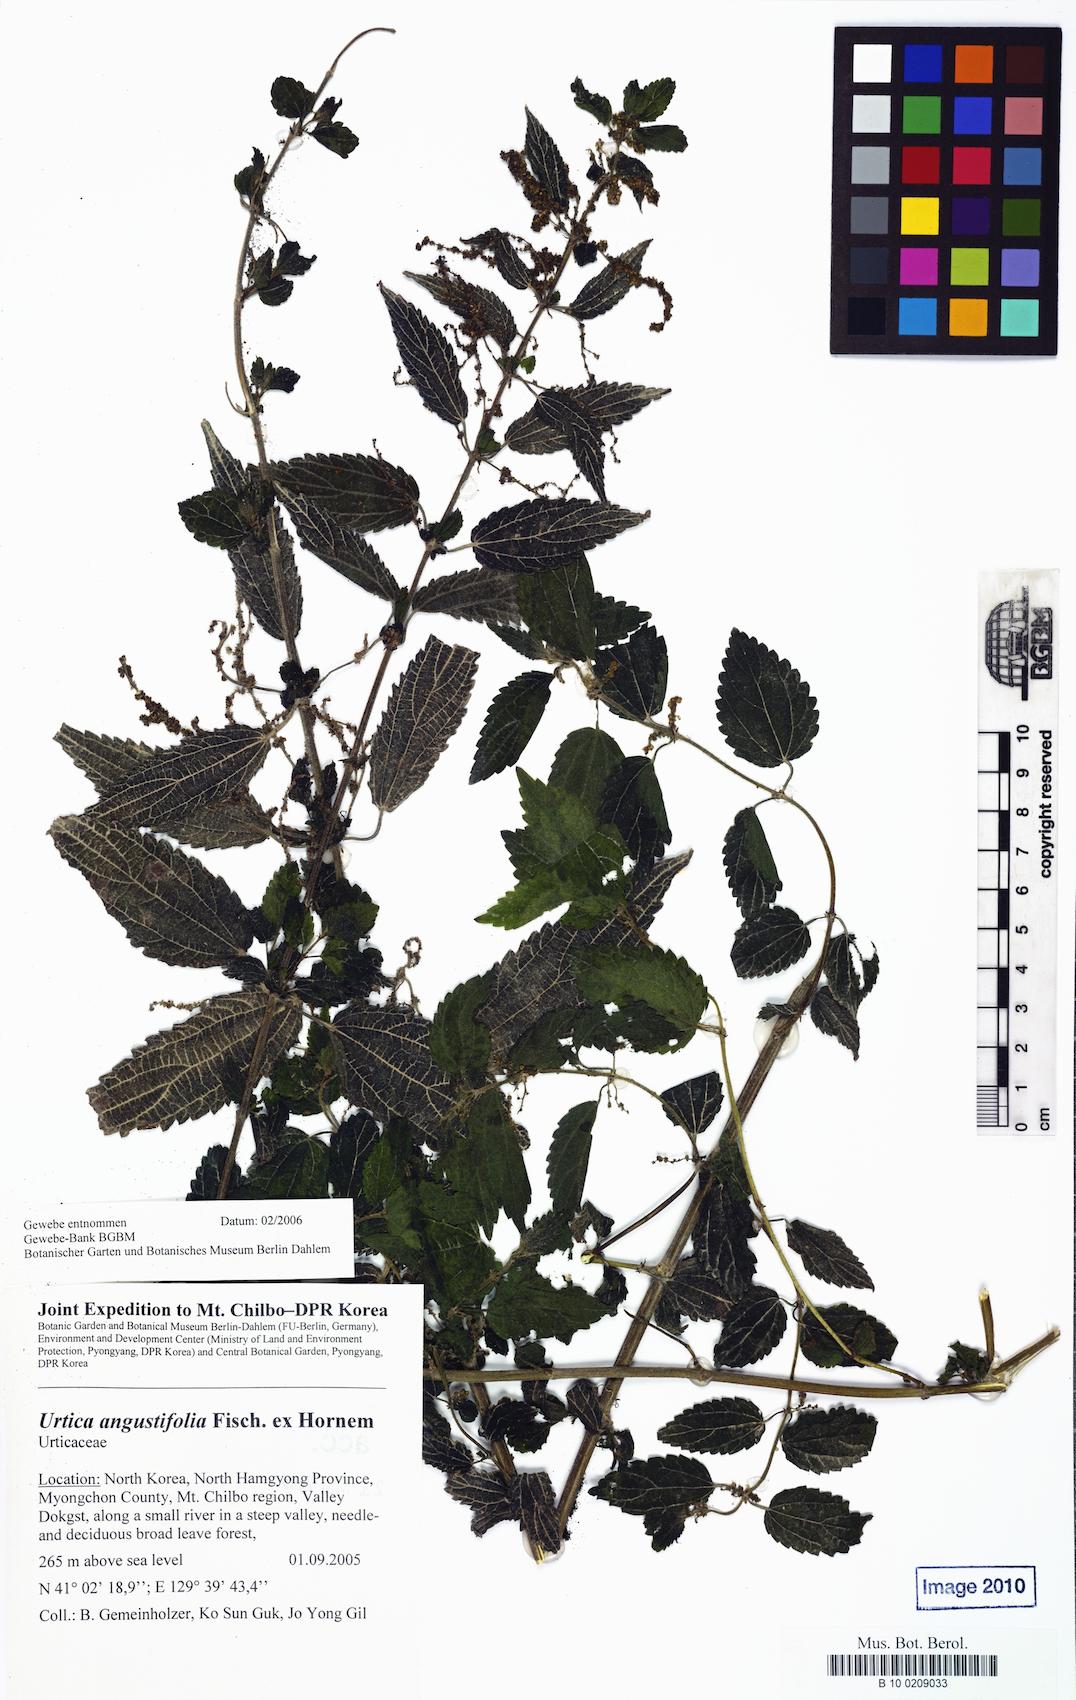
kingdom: Plantae
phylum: Tracheophyta
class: Magnoliopsida
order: Rosales
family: Urticaceae
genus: Urtica
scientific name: Urtica dioica
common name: Common nettle
